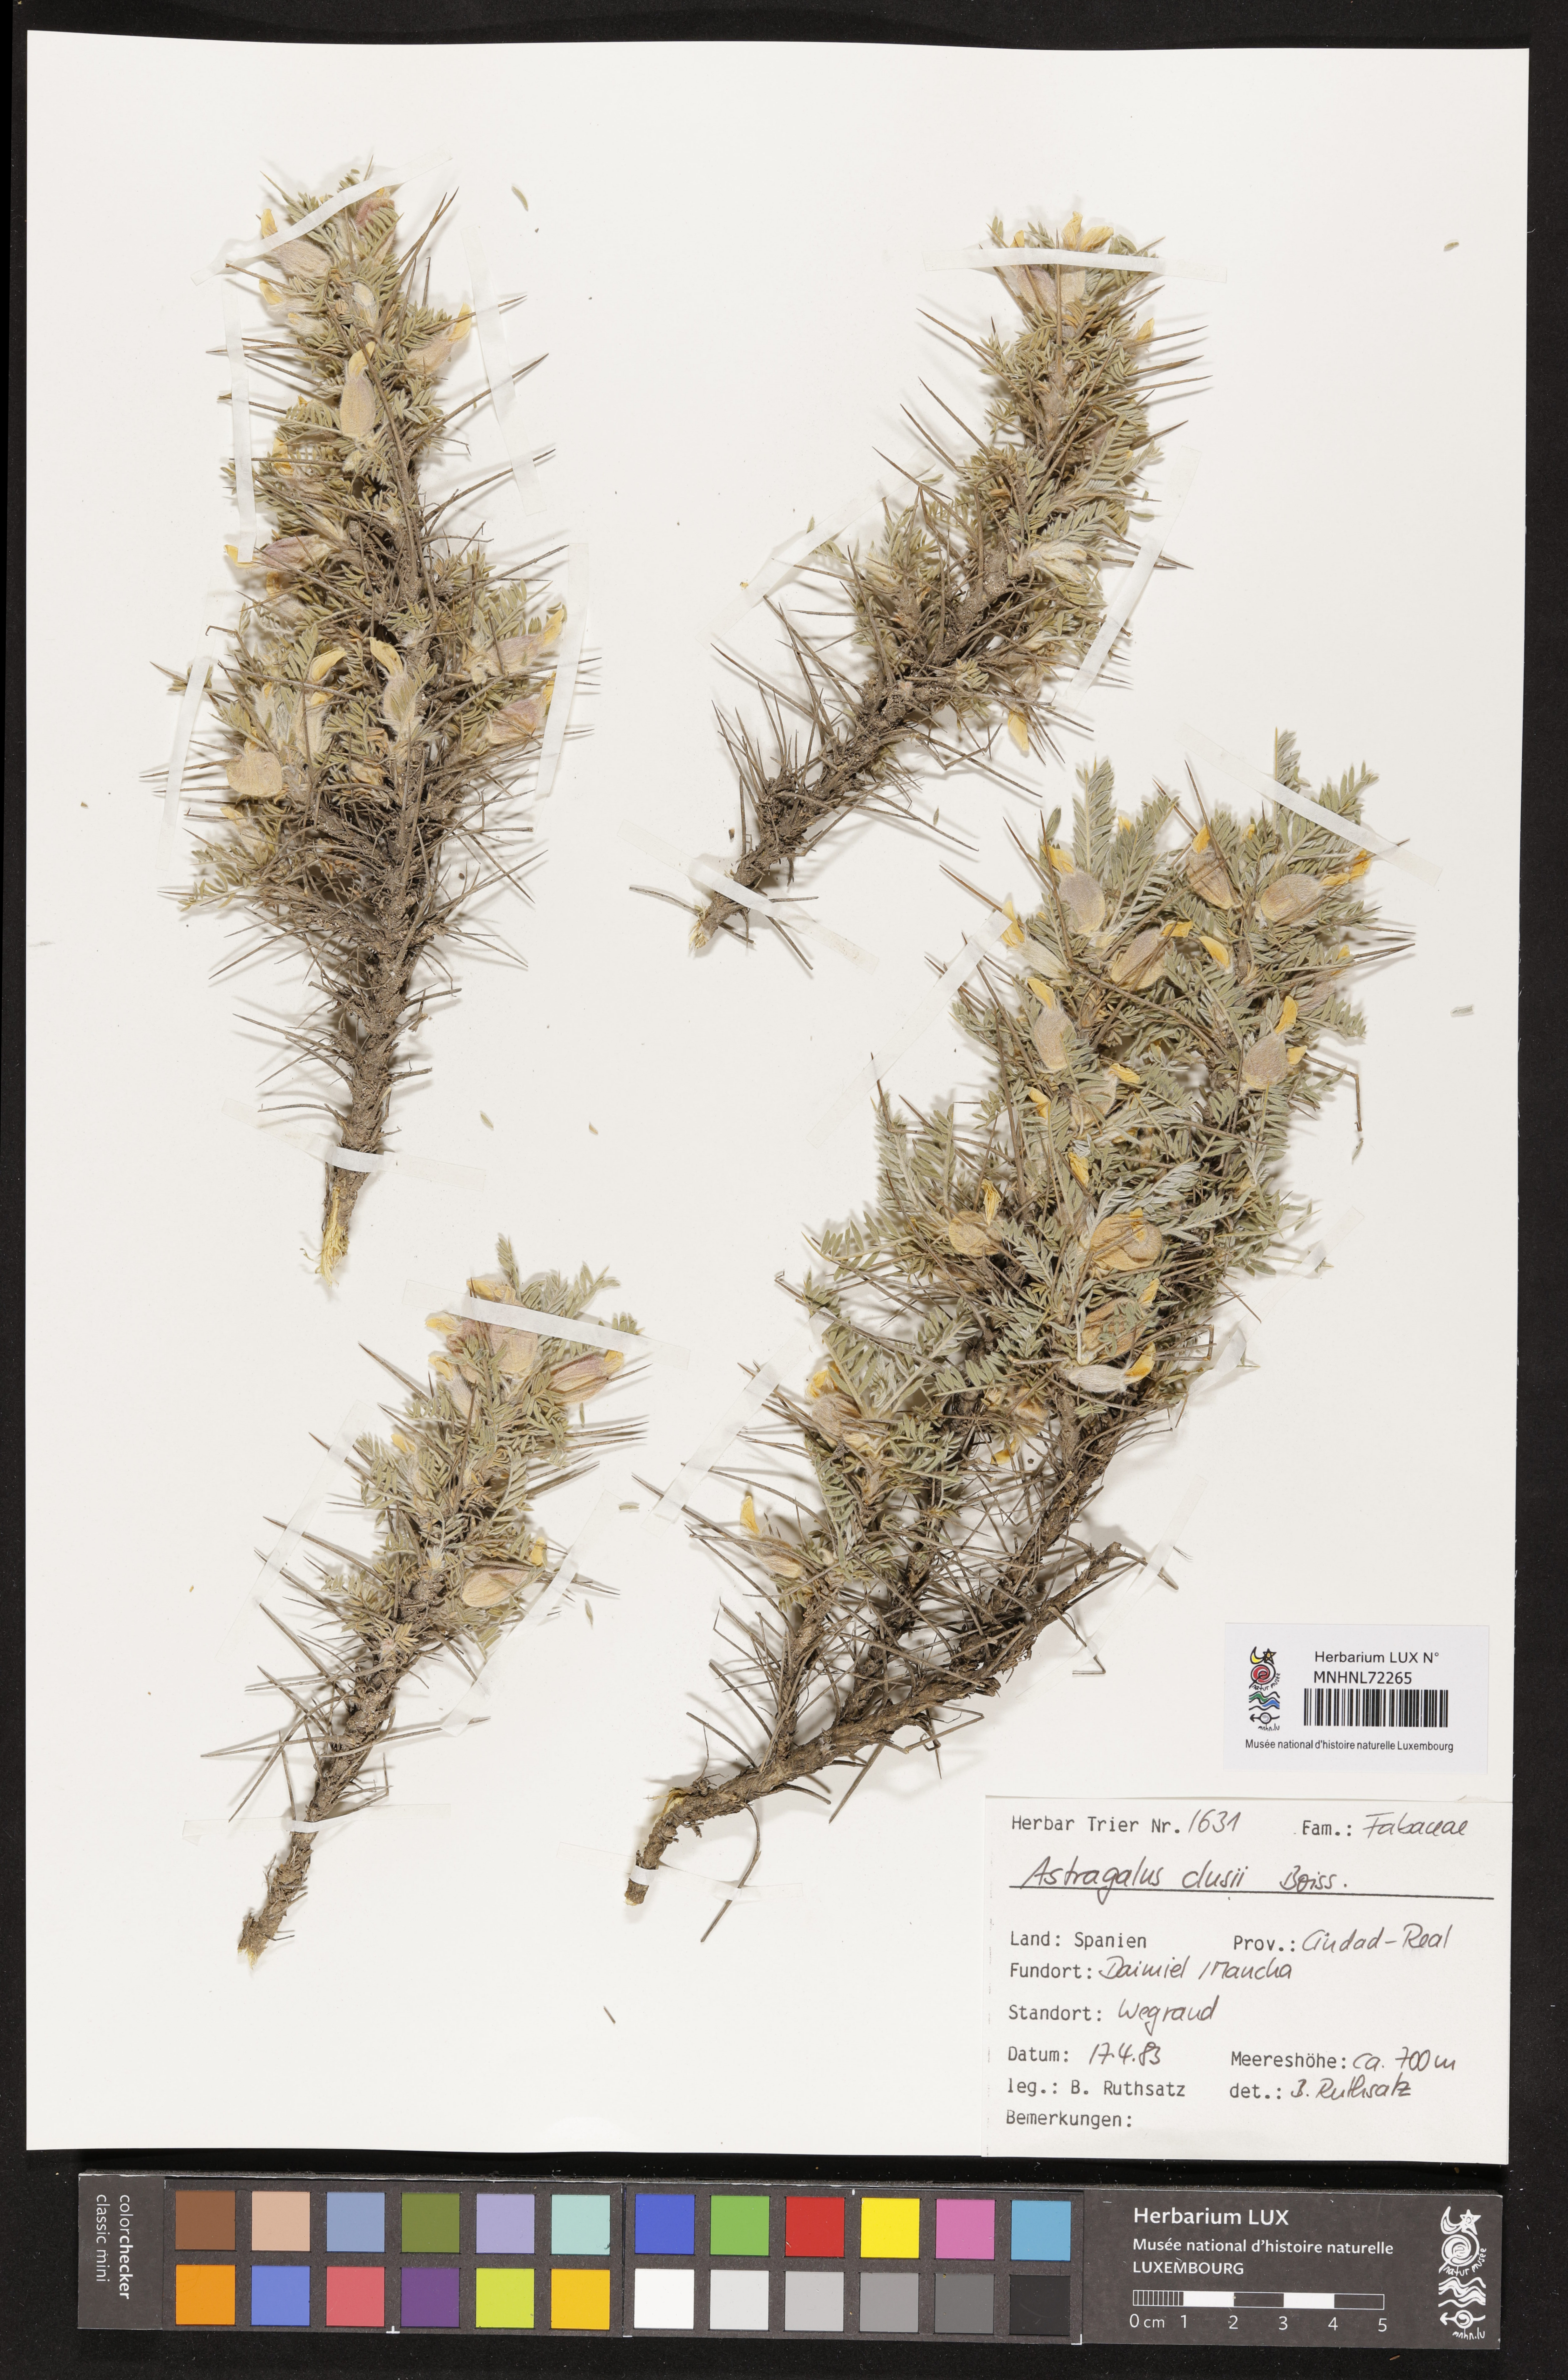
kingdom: Plantae
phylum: Tracheophyta
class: Magnoliopsida
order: Fabales
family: Fabaceae
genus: Astragalus
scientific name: Astragalus clusianus
